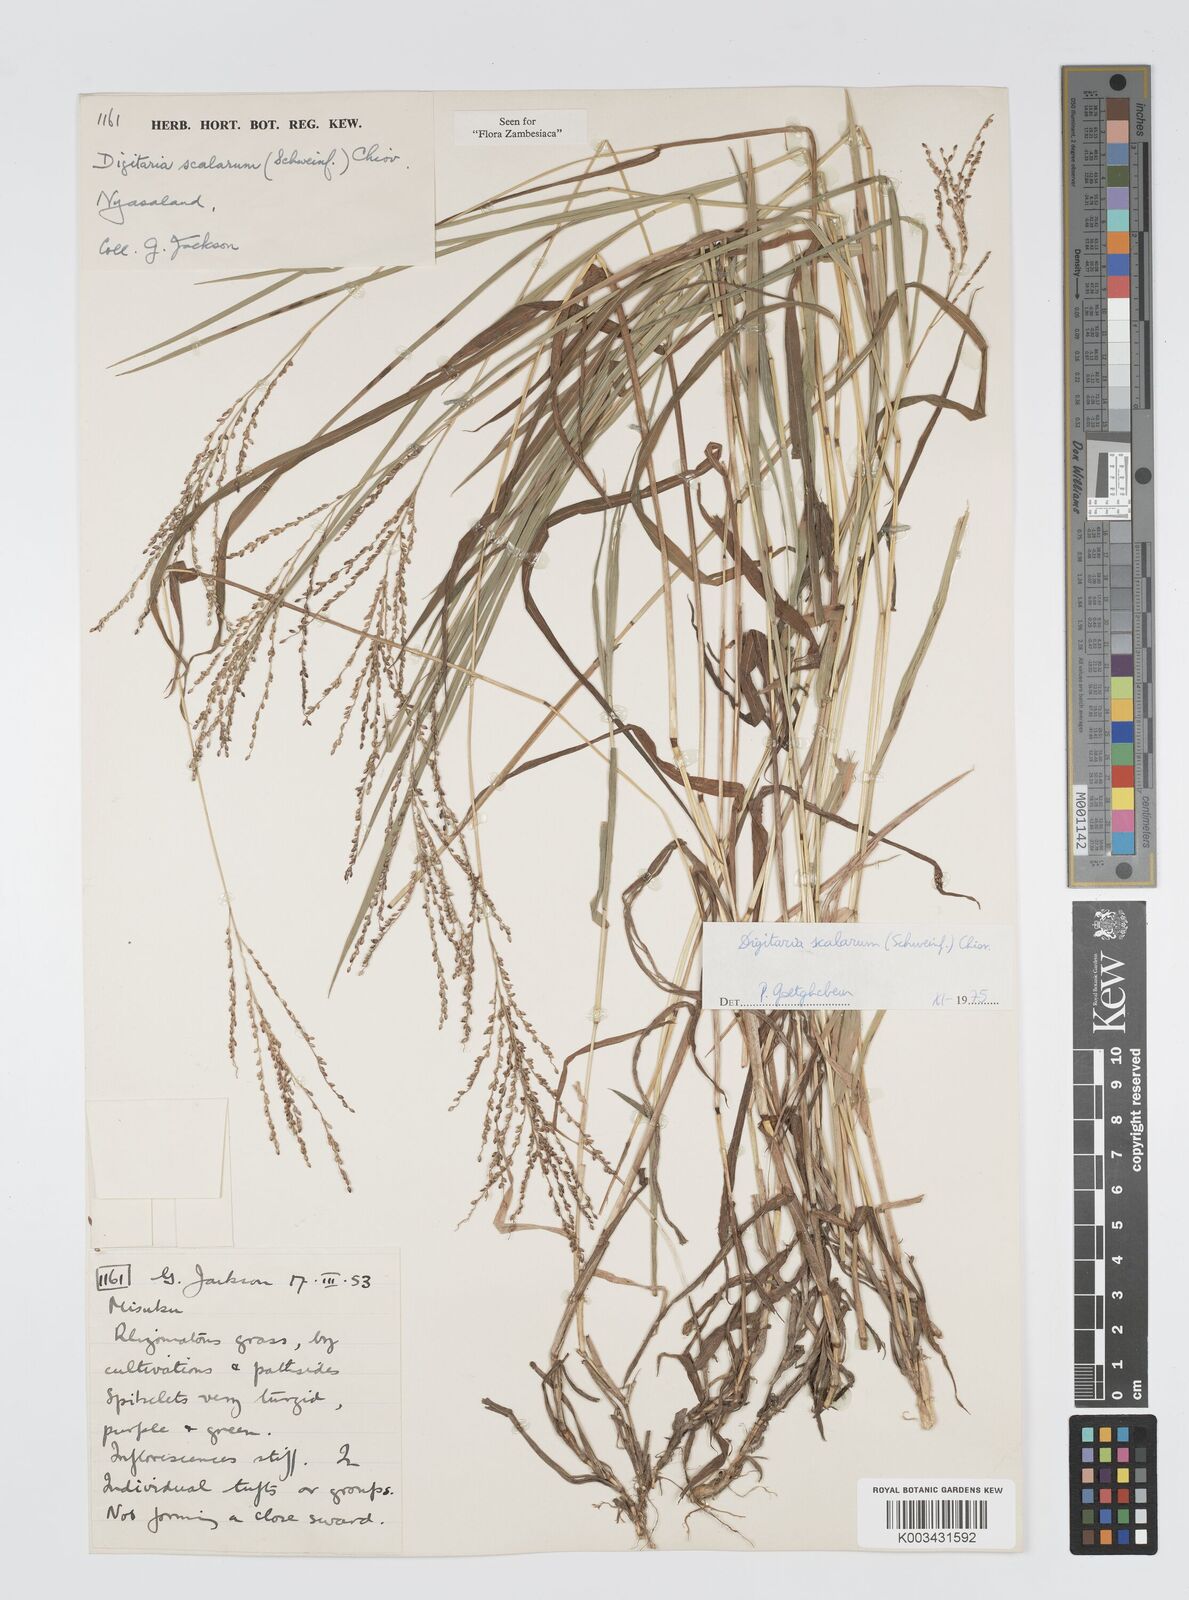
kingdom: Plantae
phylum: Tracheophyta
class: Liliopsida
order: Poales
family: Poaceae
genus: Digitaria
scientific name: Digitaria abyssinica
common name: African couchgrass
